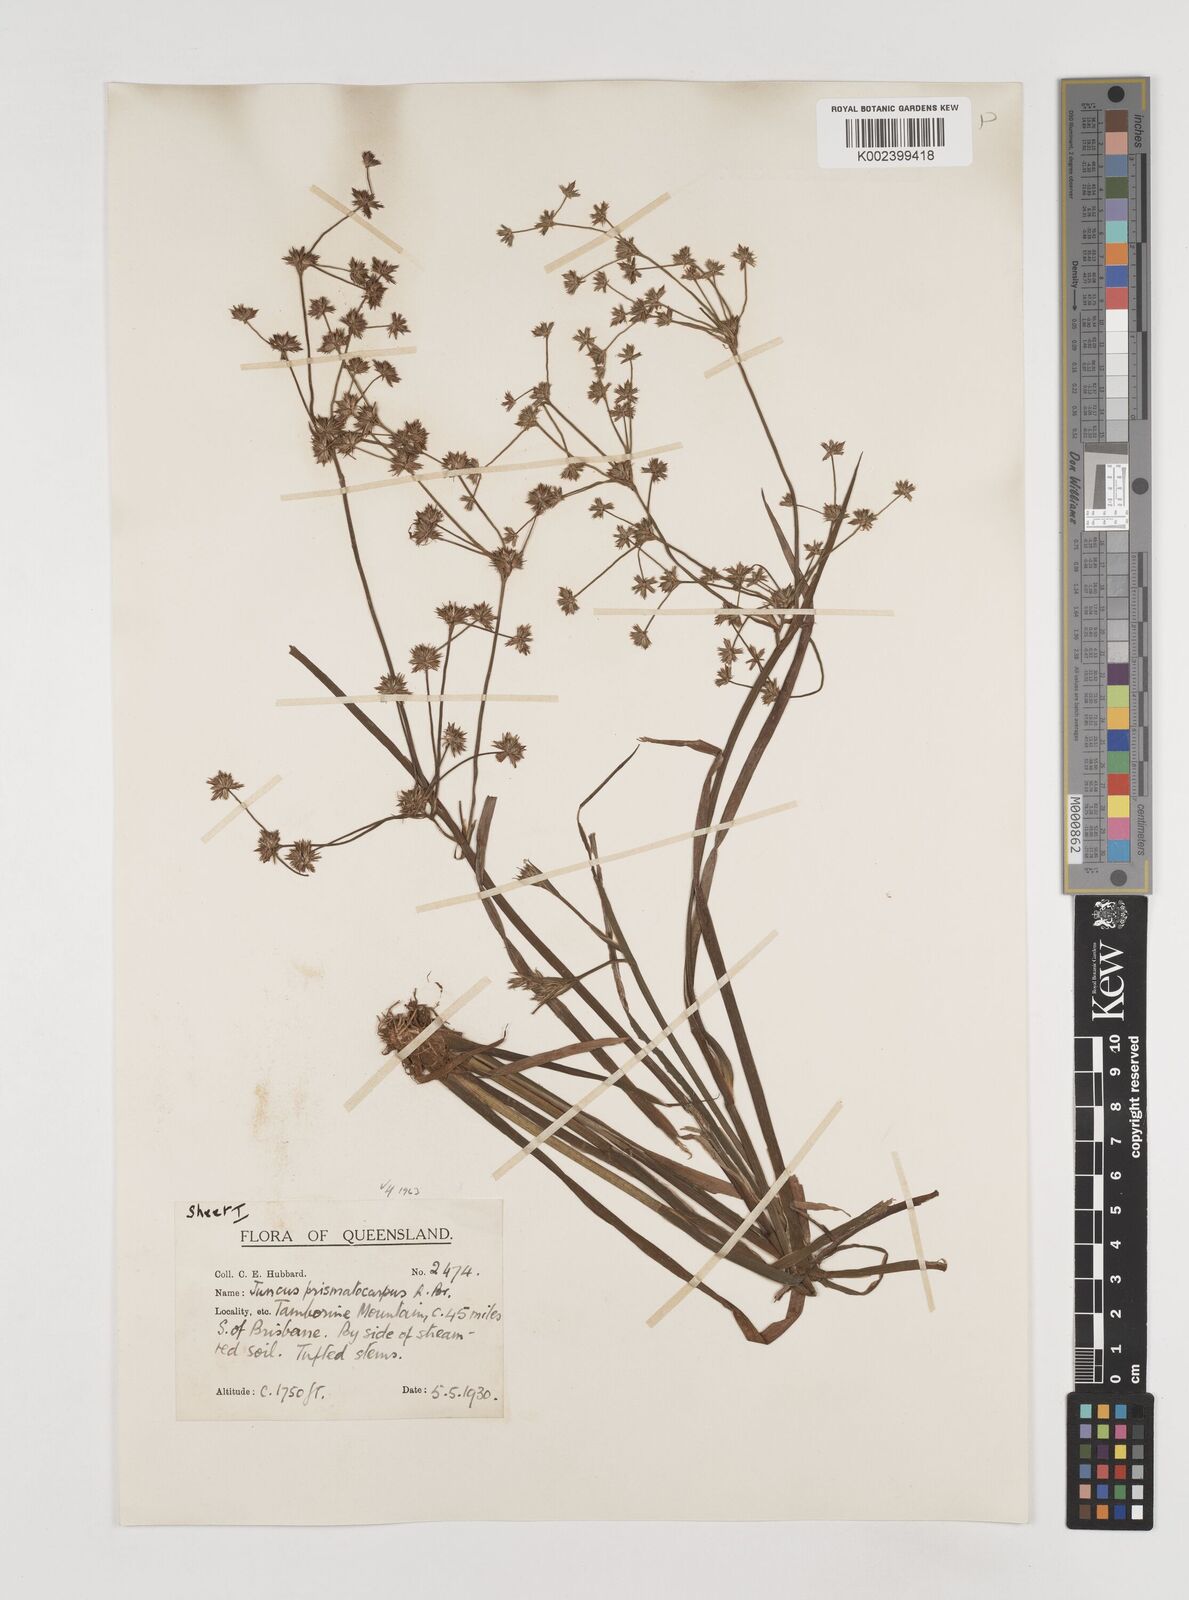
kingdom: Plantae
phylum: Tracheophyta
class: Liliopsida
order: Poales
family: Juncaceae
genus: Juncus
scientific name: Juncus prismatocarpus
